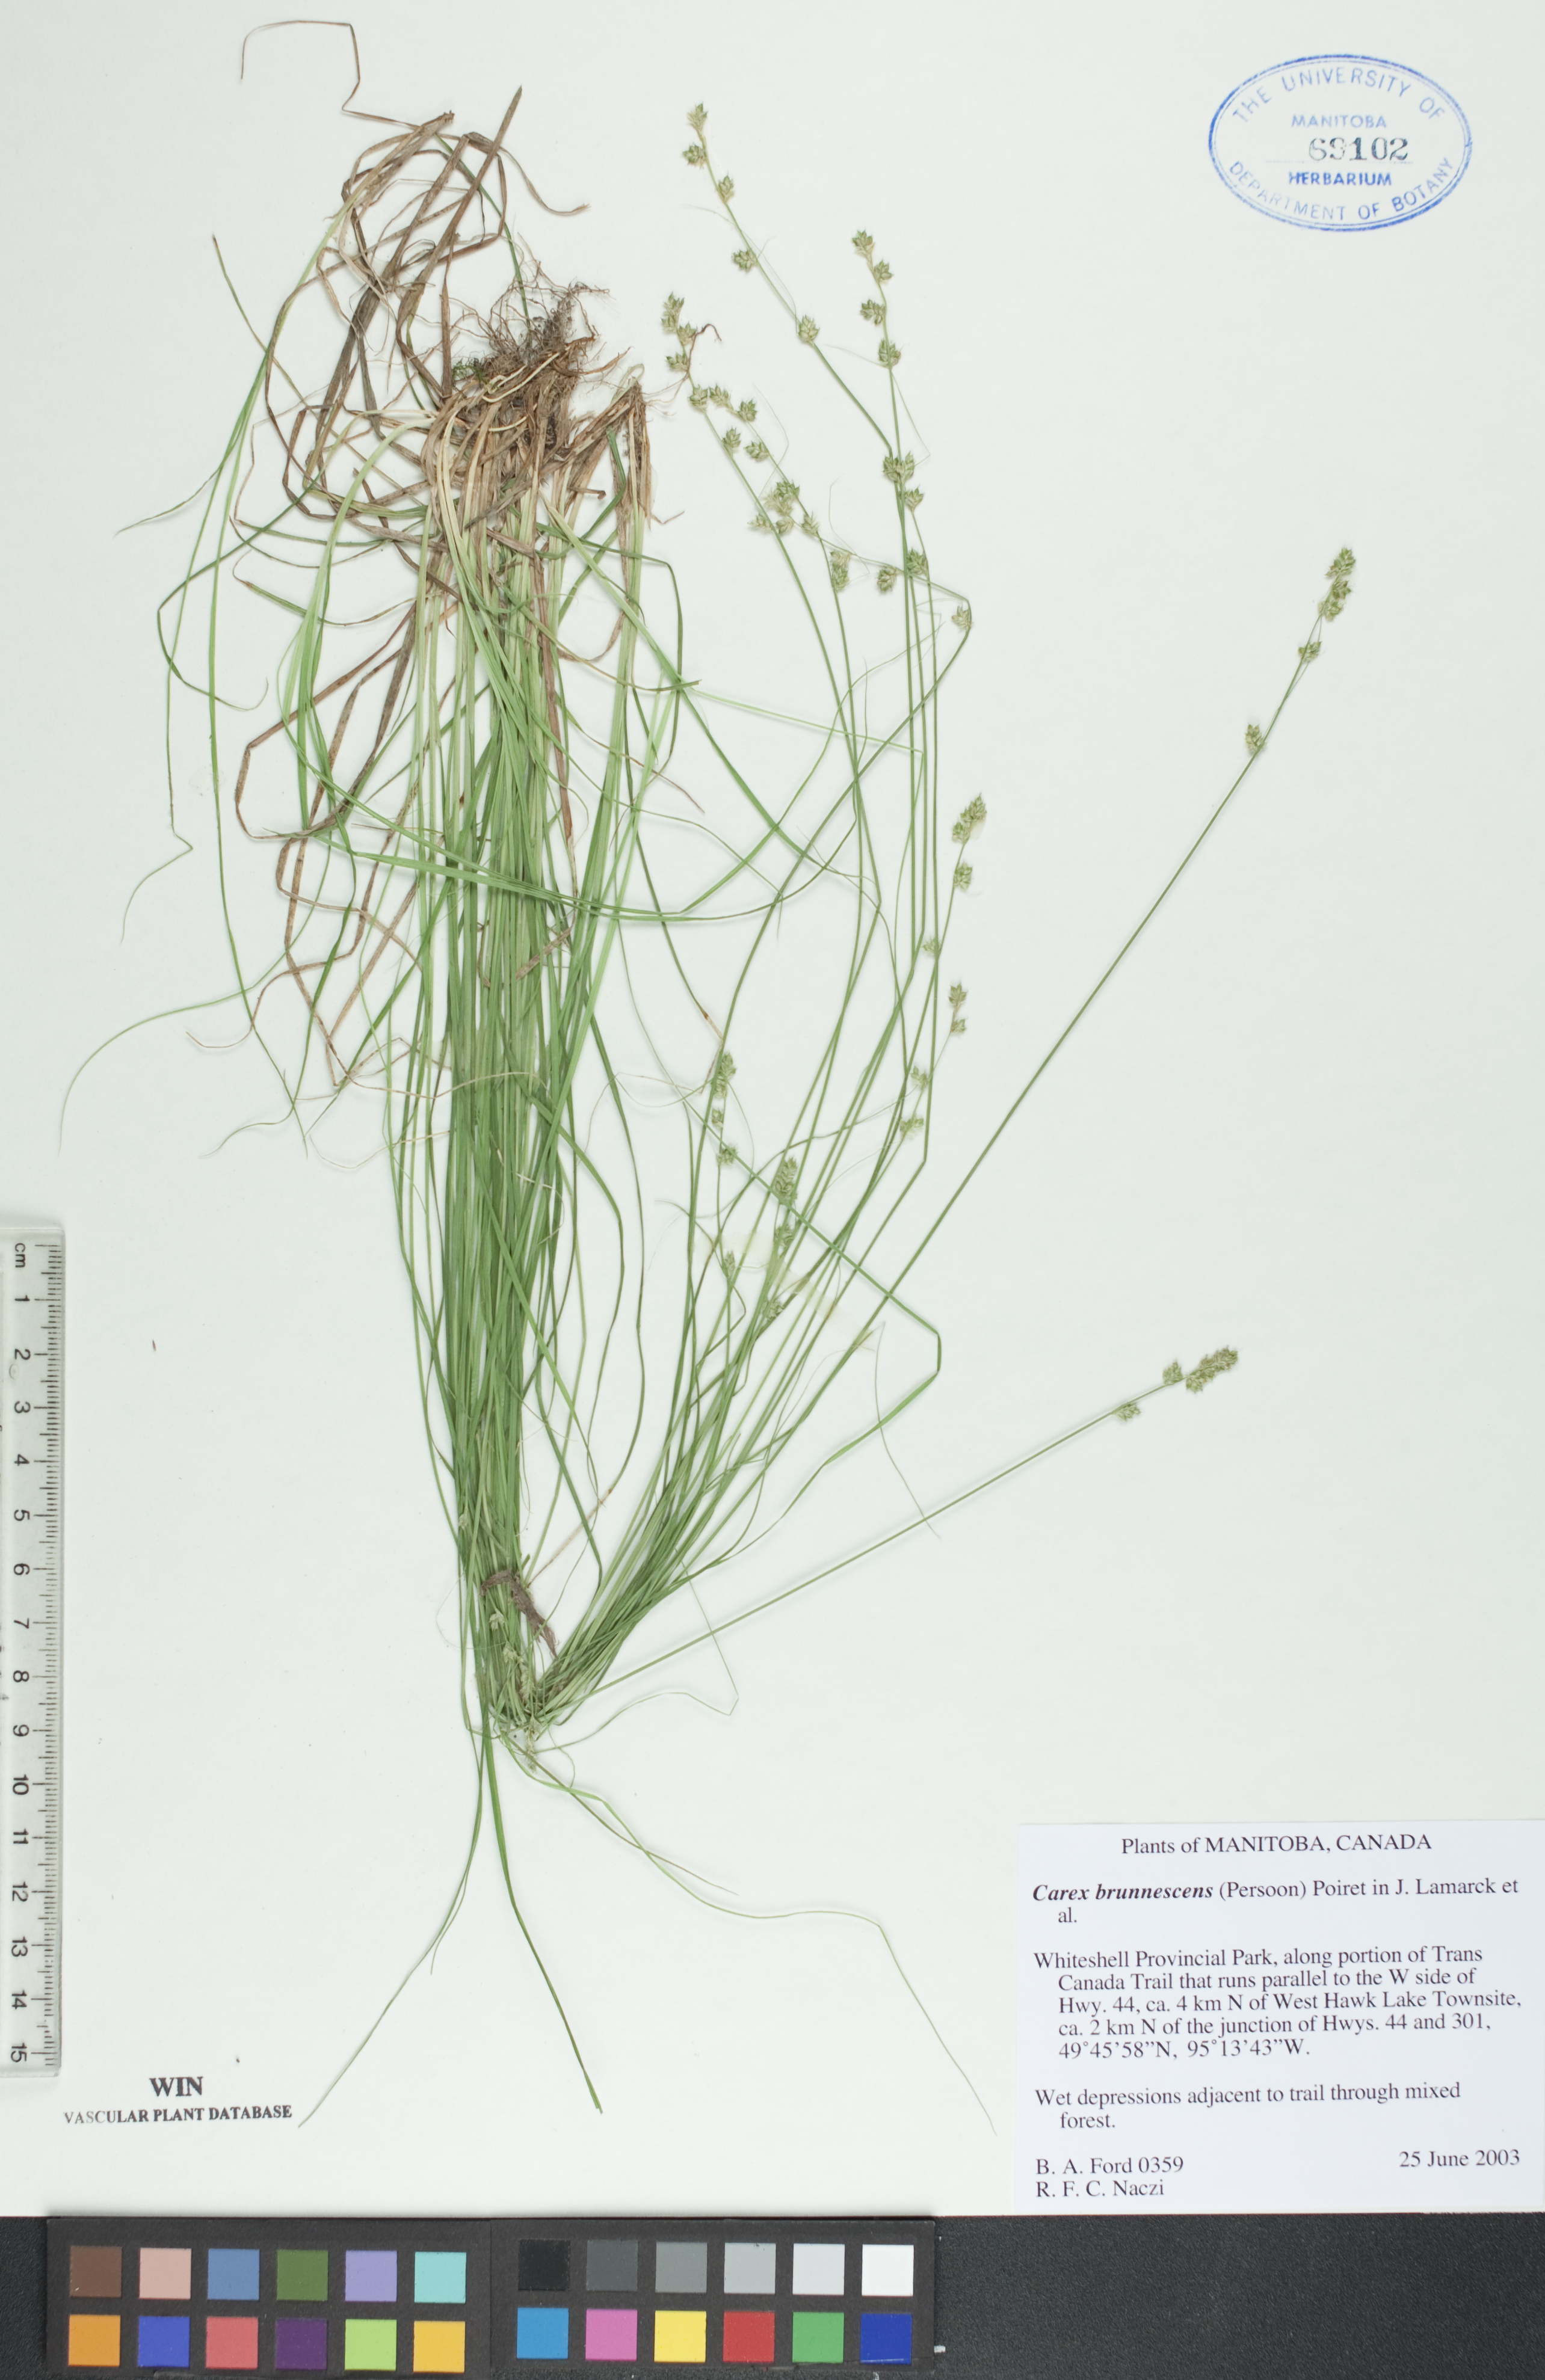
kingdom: Plantae
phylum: Tracheophyta
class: Liliopsida
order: Poales
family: Cyperaceae
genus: Carex
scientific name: Carex brunnescens
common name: Brown sedge
